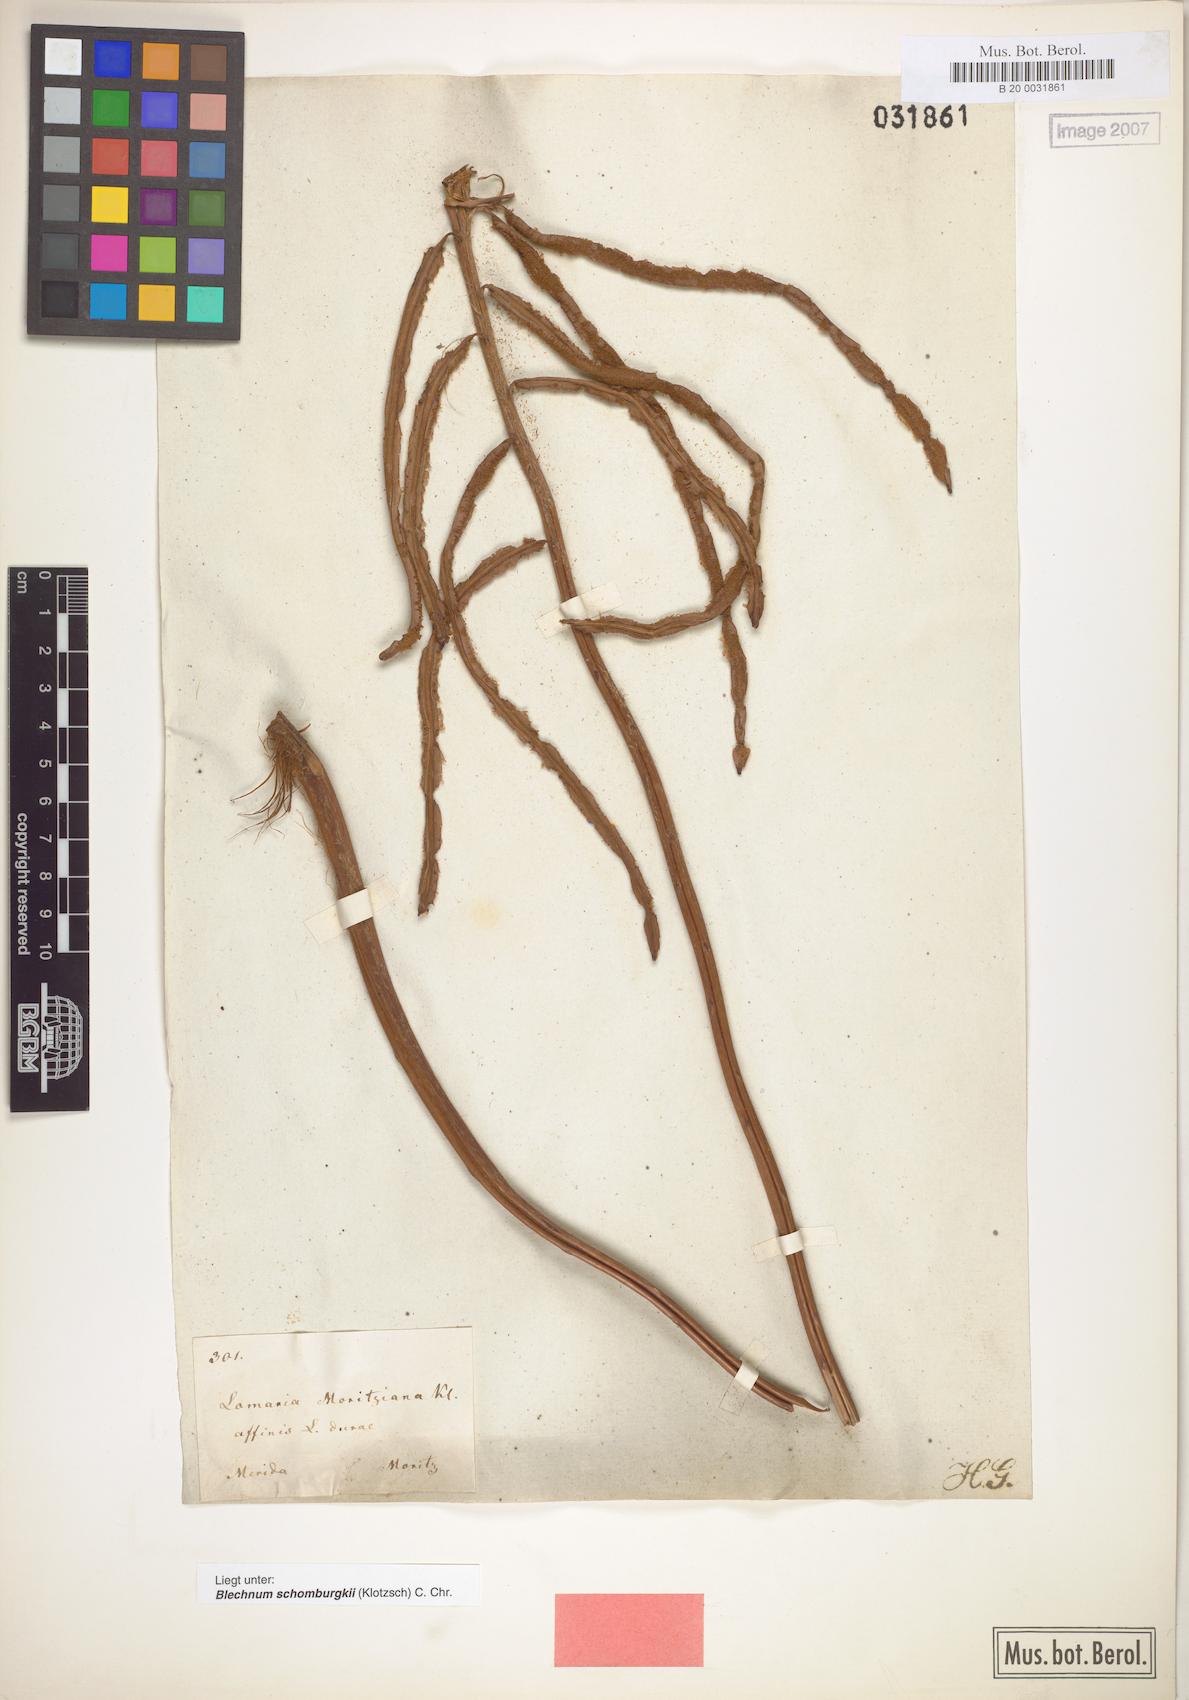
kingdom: Plantae
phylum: Tracheophyta
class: Polypodiopsida
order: Polypodiales
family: Blechnaceae
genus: Lomariocycas
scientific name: Lomariocycas moritziana
